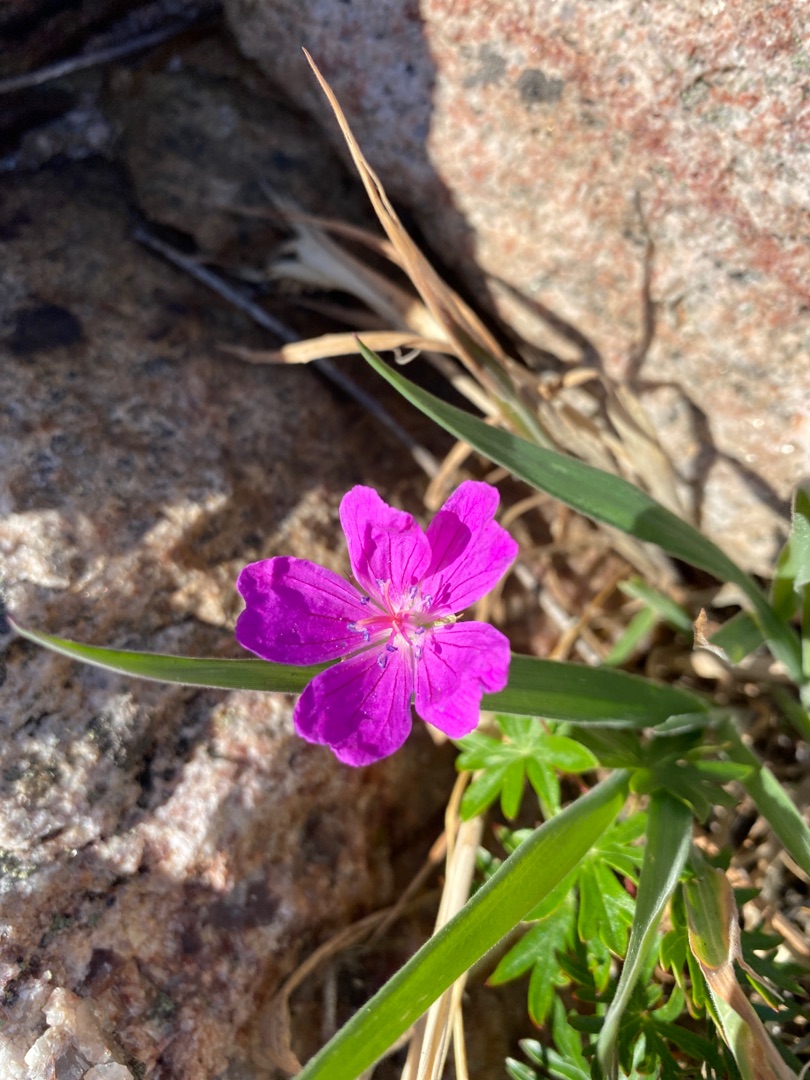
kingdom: Plantae
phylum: Tracheophyta
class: Magnoliopsida
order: Geraniales
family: Geraniaceae
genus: Geranium
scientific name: Geranium sanguineum
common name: Blodrød storkenæb
